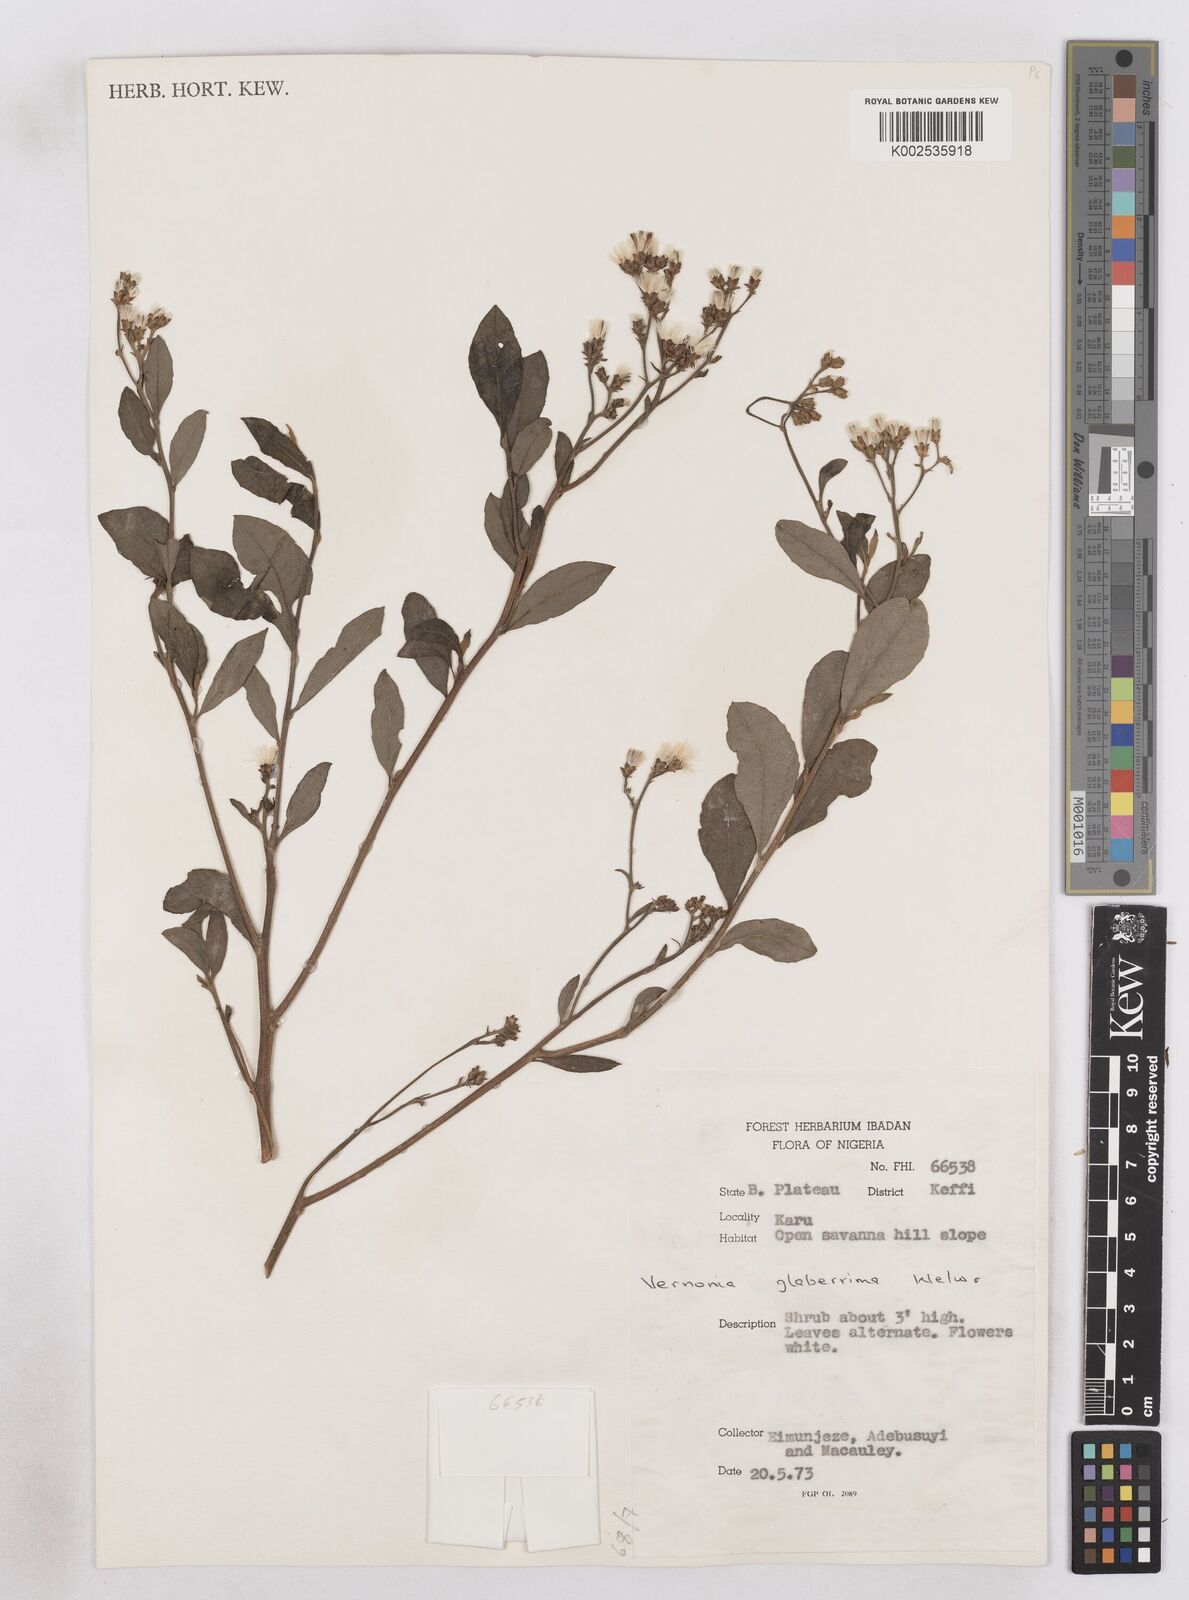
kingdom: Plantae
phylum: Tracheophyta
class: Magnoliopsida
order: Asterales
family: Asteraceae
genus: Gymnanthemum
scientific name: Gymnanthemum glaberrimum
